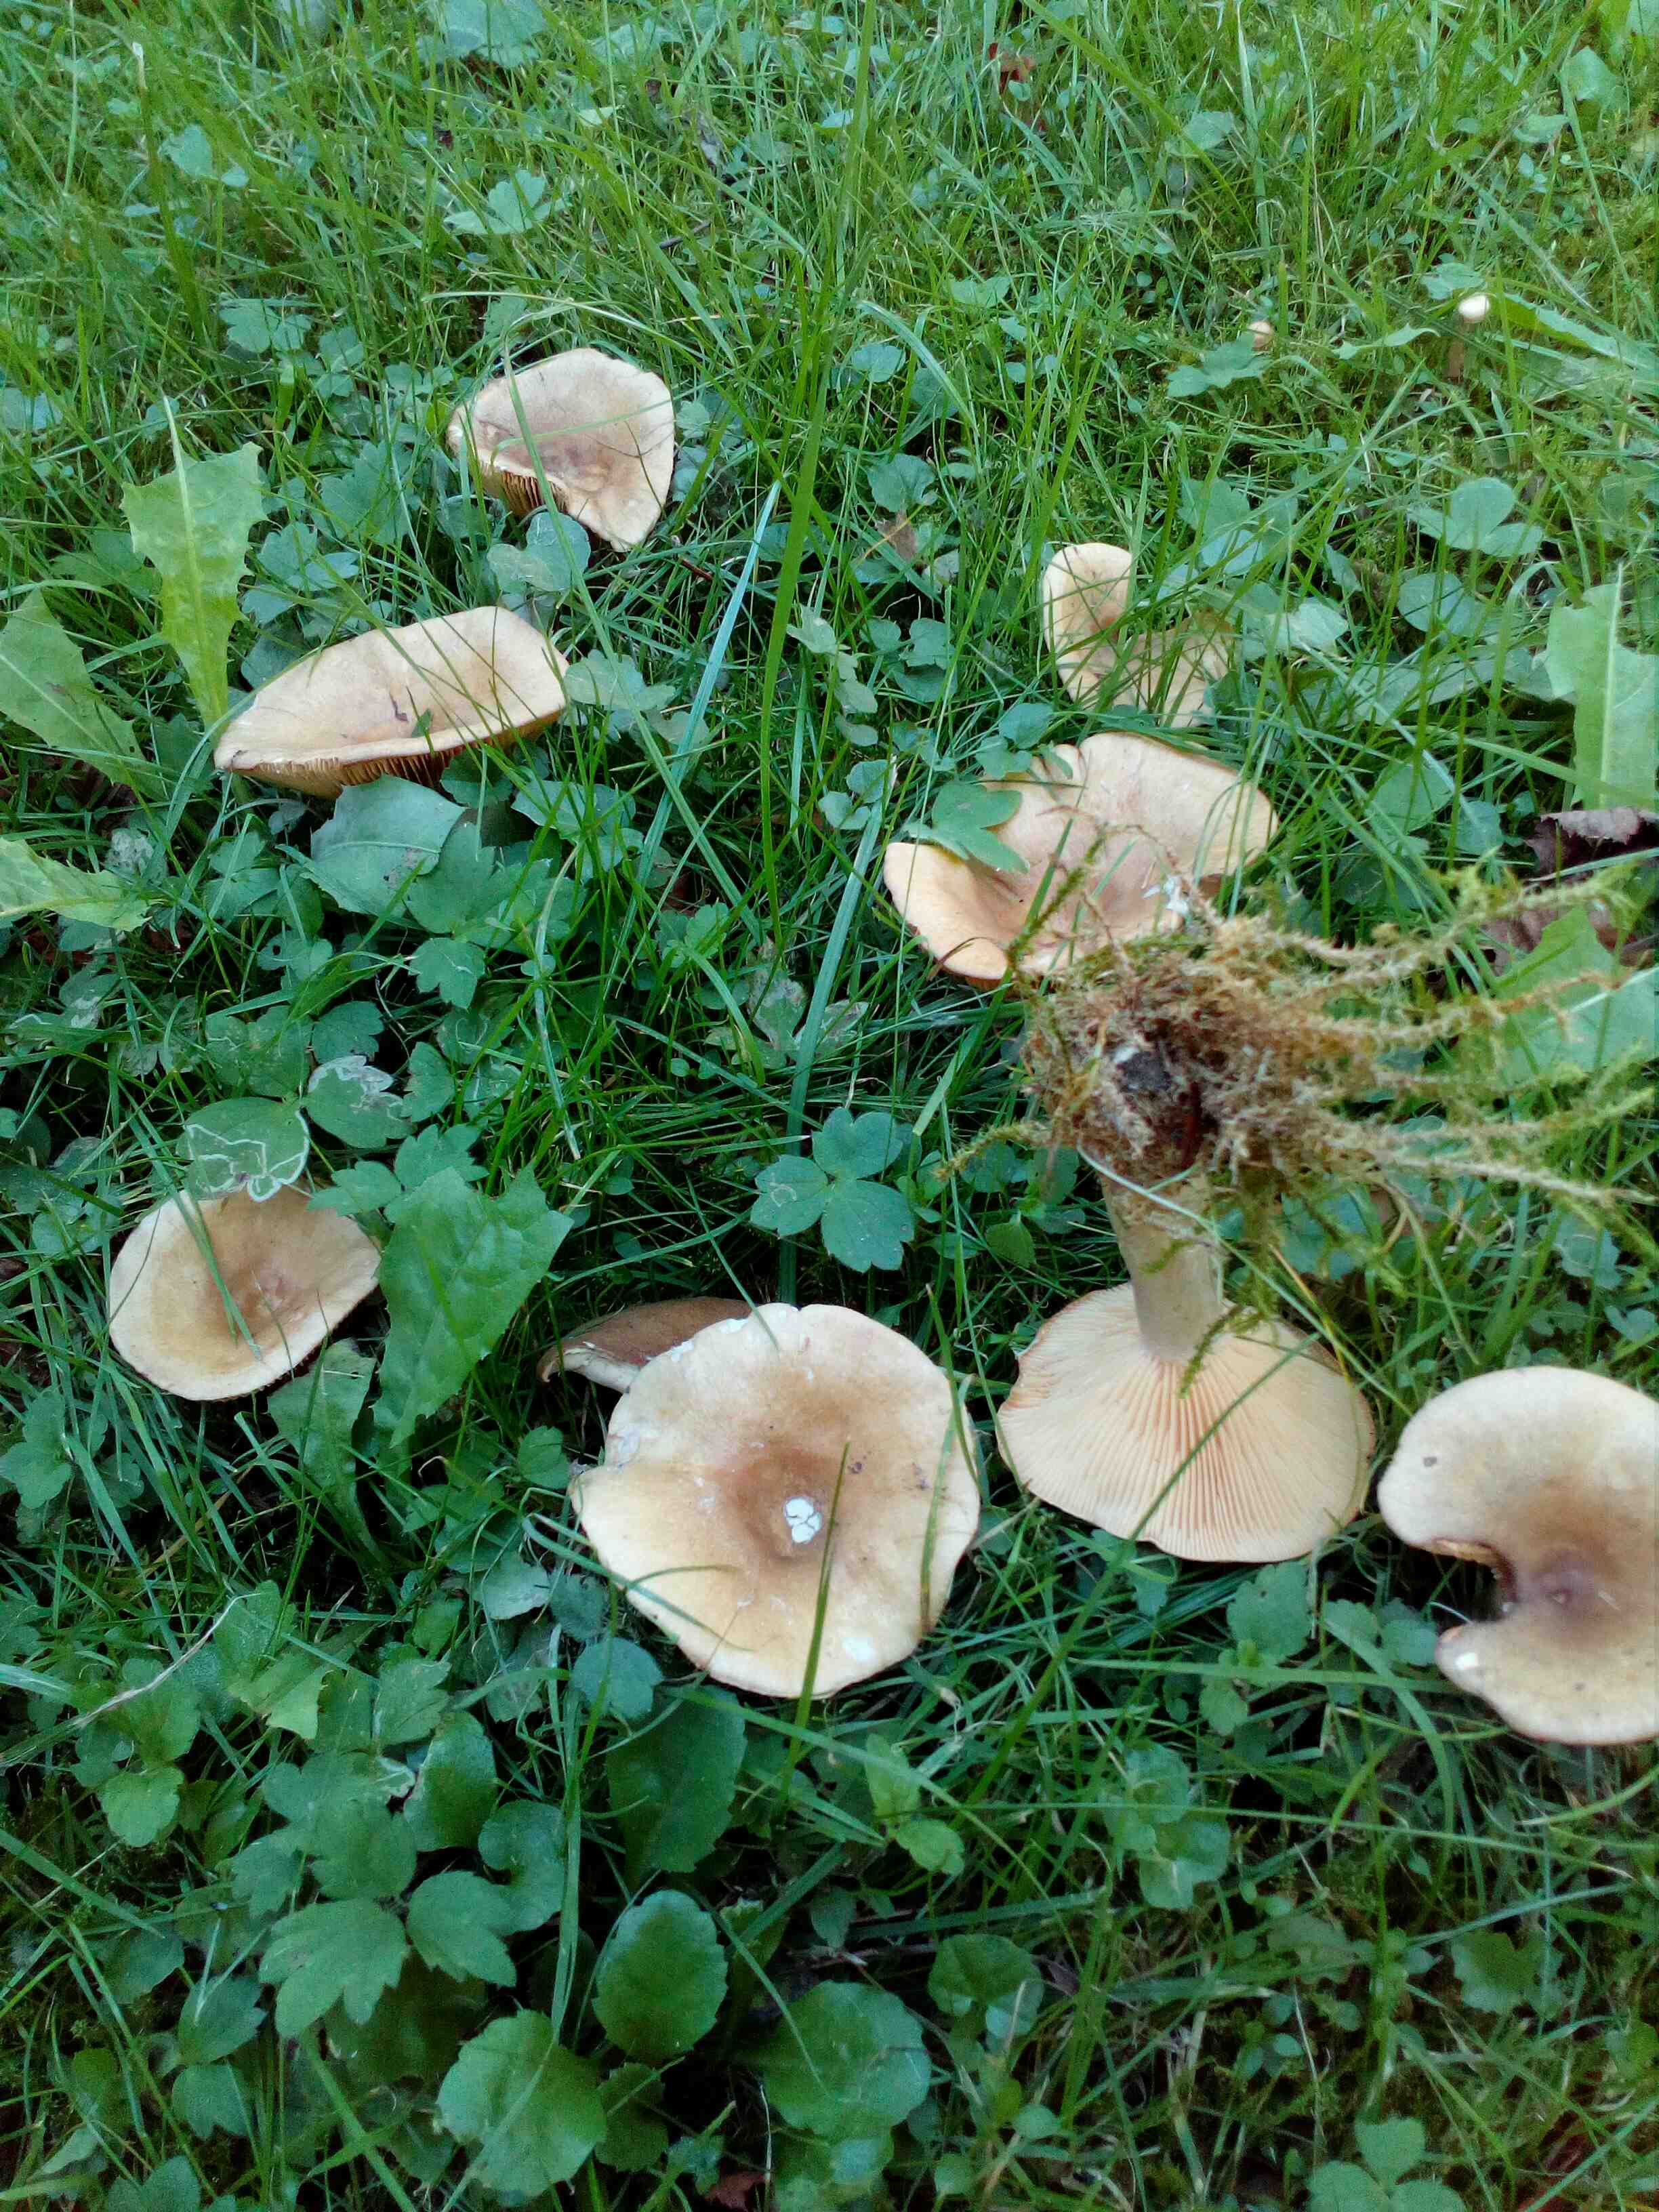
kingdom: Fungi
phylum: Basidiomycota
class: Agaricomycetes
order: Russulales
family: Russulaceae
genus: Lactarius
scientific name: Lactarius pyrogalus
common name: hassel-mælkehat
